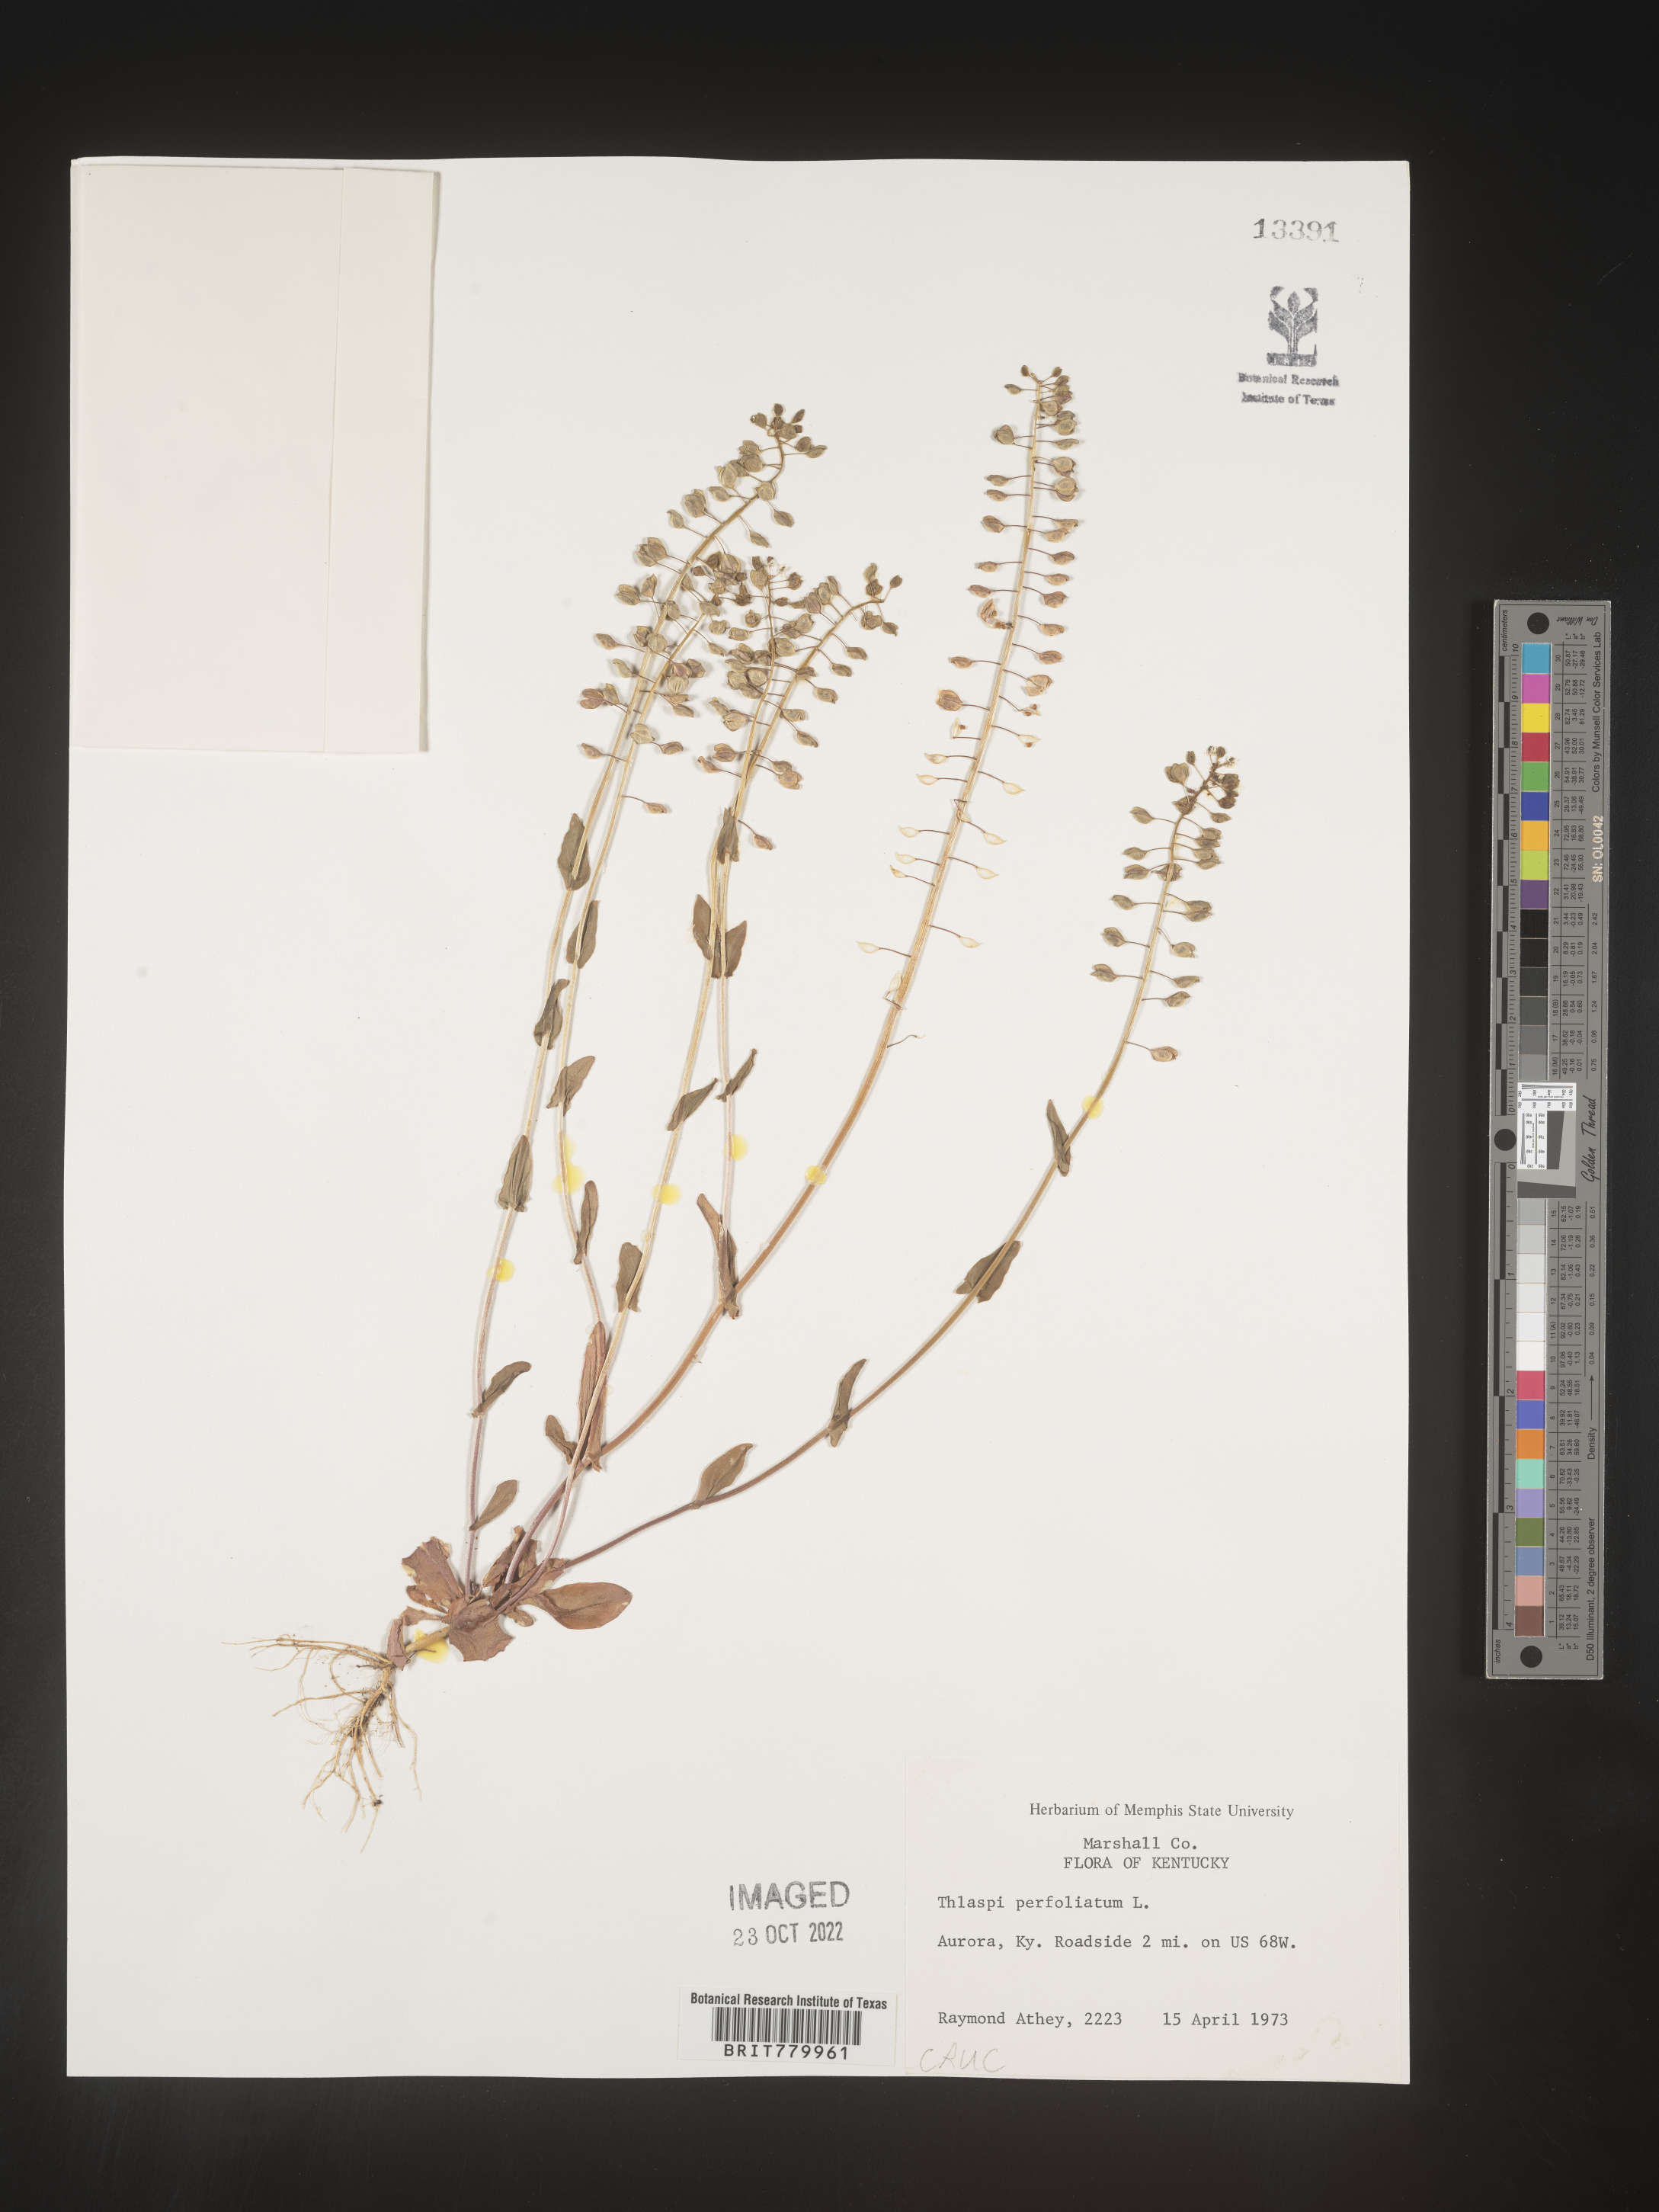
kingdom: Plantae
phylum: Tracheophyta
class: Magnoliopsida
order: Brassicales
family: Brassicaceae
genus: Thlaspi
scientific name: Thlaspi
